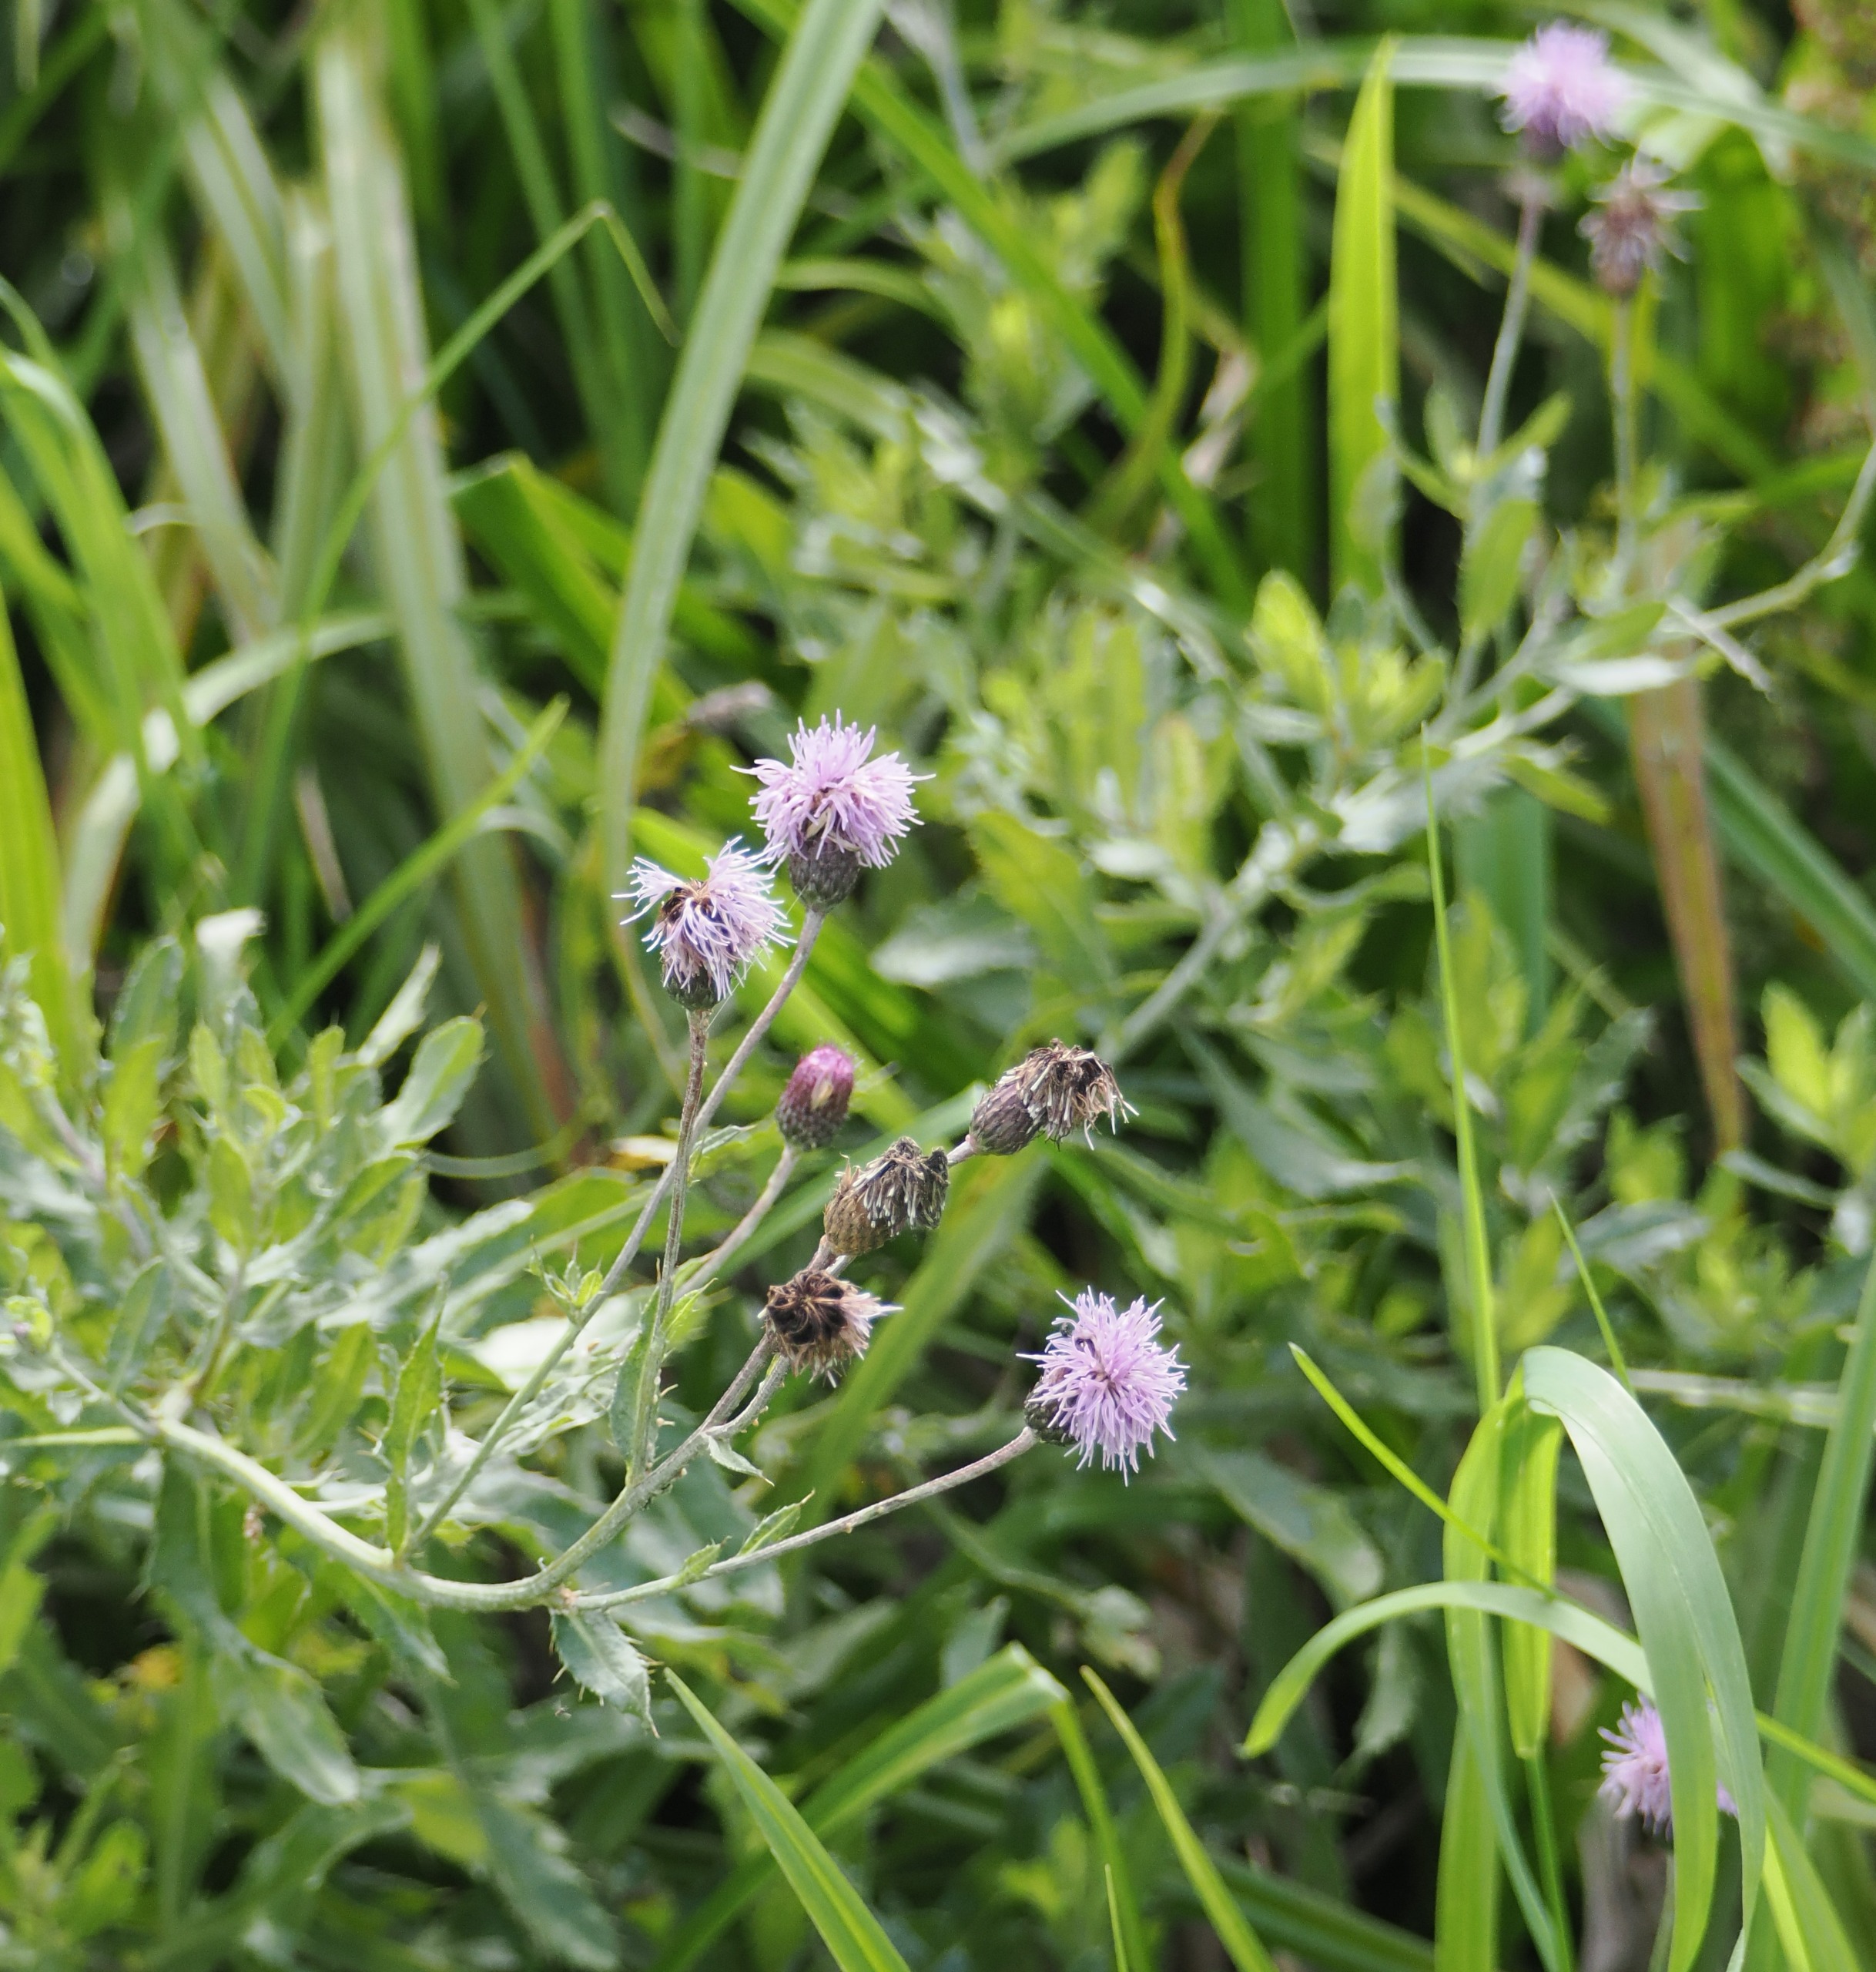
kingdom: Plantae
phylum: Tracheophyta
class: Magnoliopsida
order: Asterales
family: Asteraceae
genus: Cirsium
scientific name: Cirsium arvense
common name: Ager-tidsel
